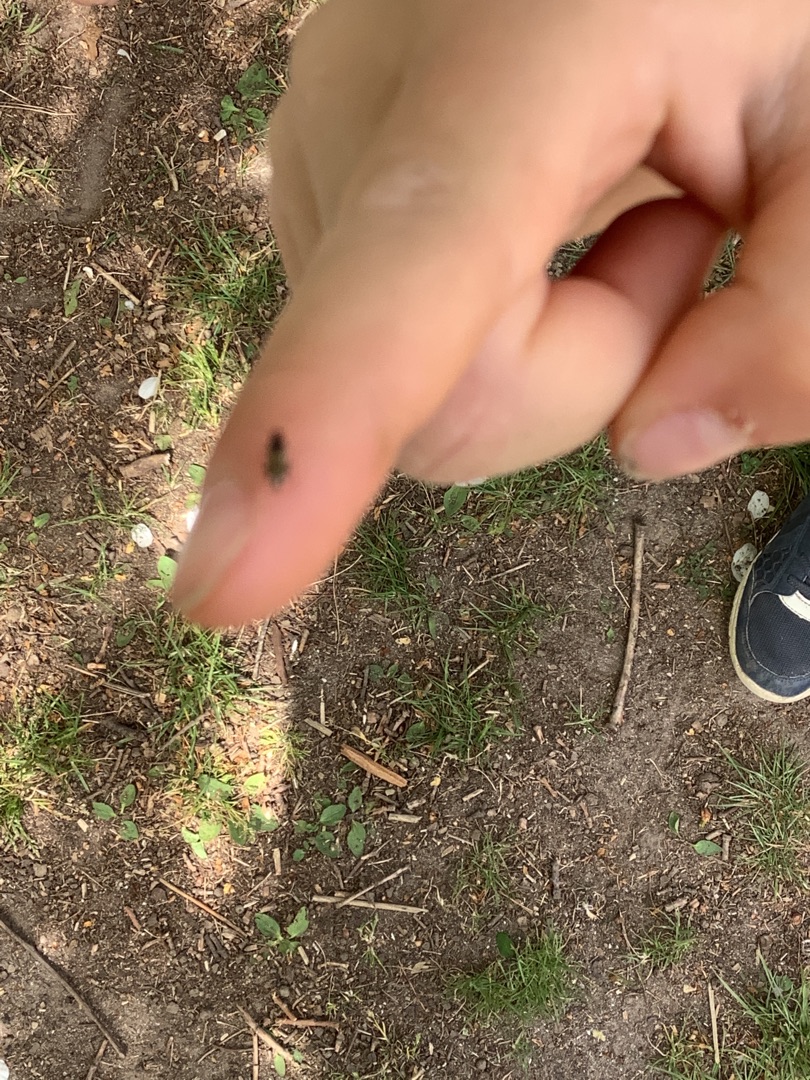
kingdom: Animalia
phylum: Arthropoda
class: Insecta
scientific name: Insecta
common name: Insekter
